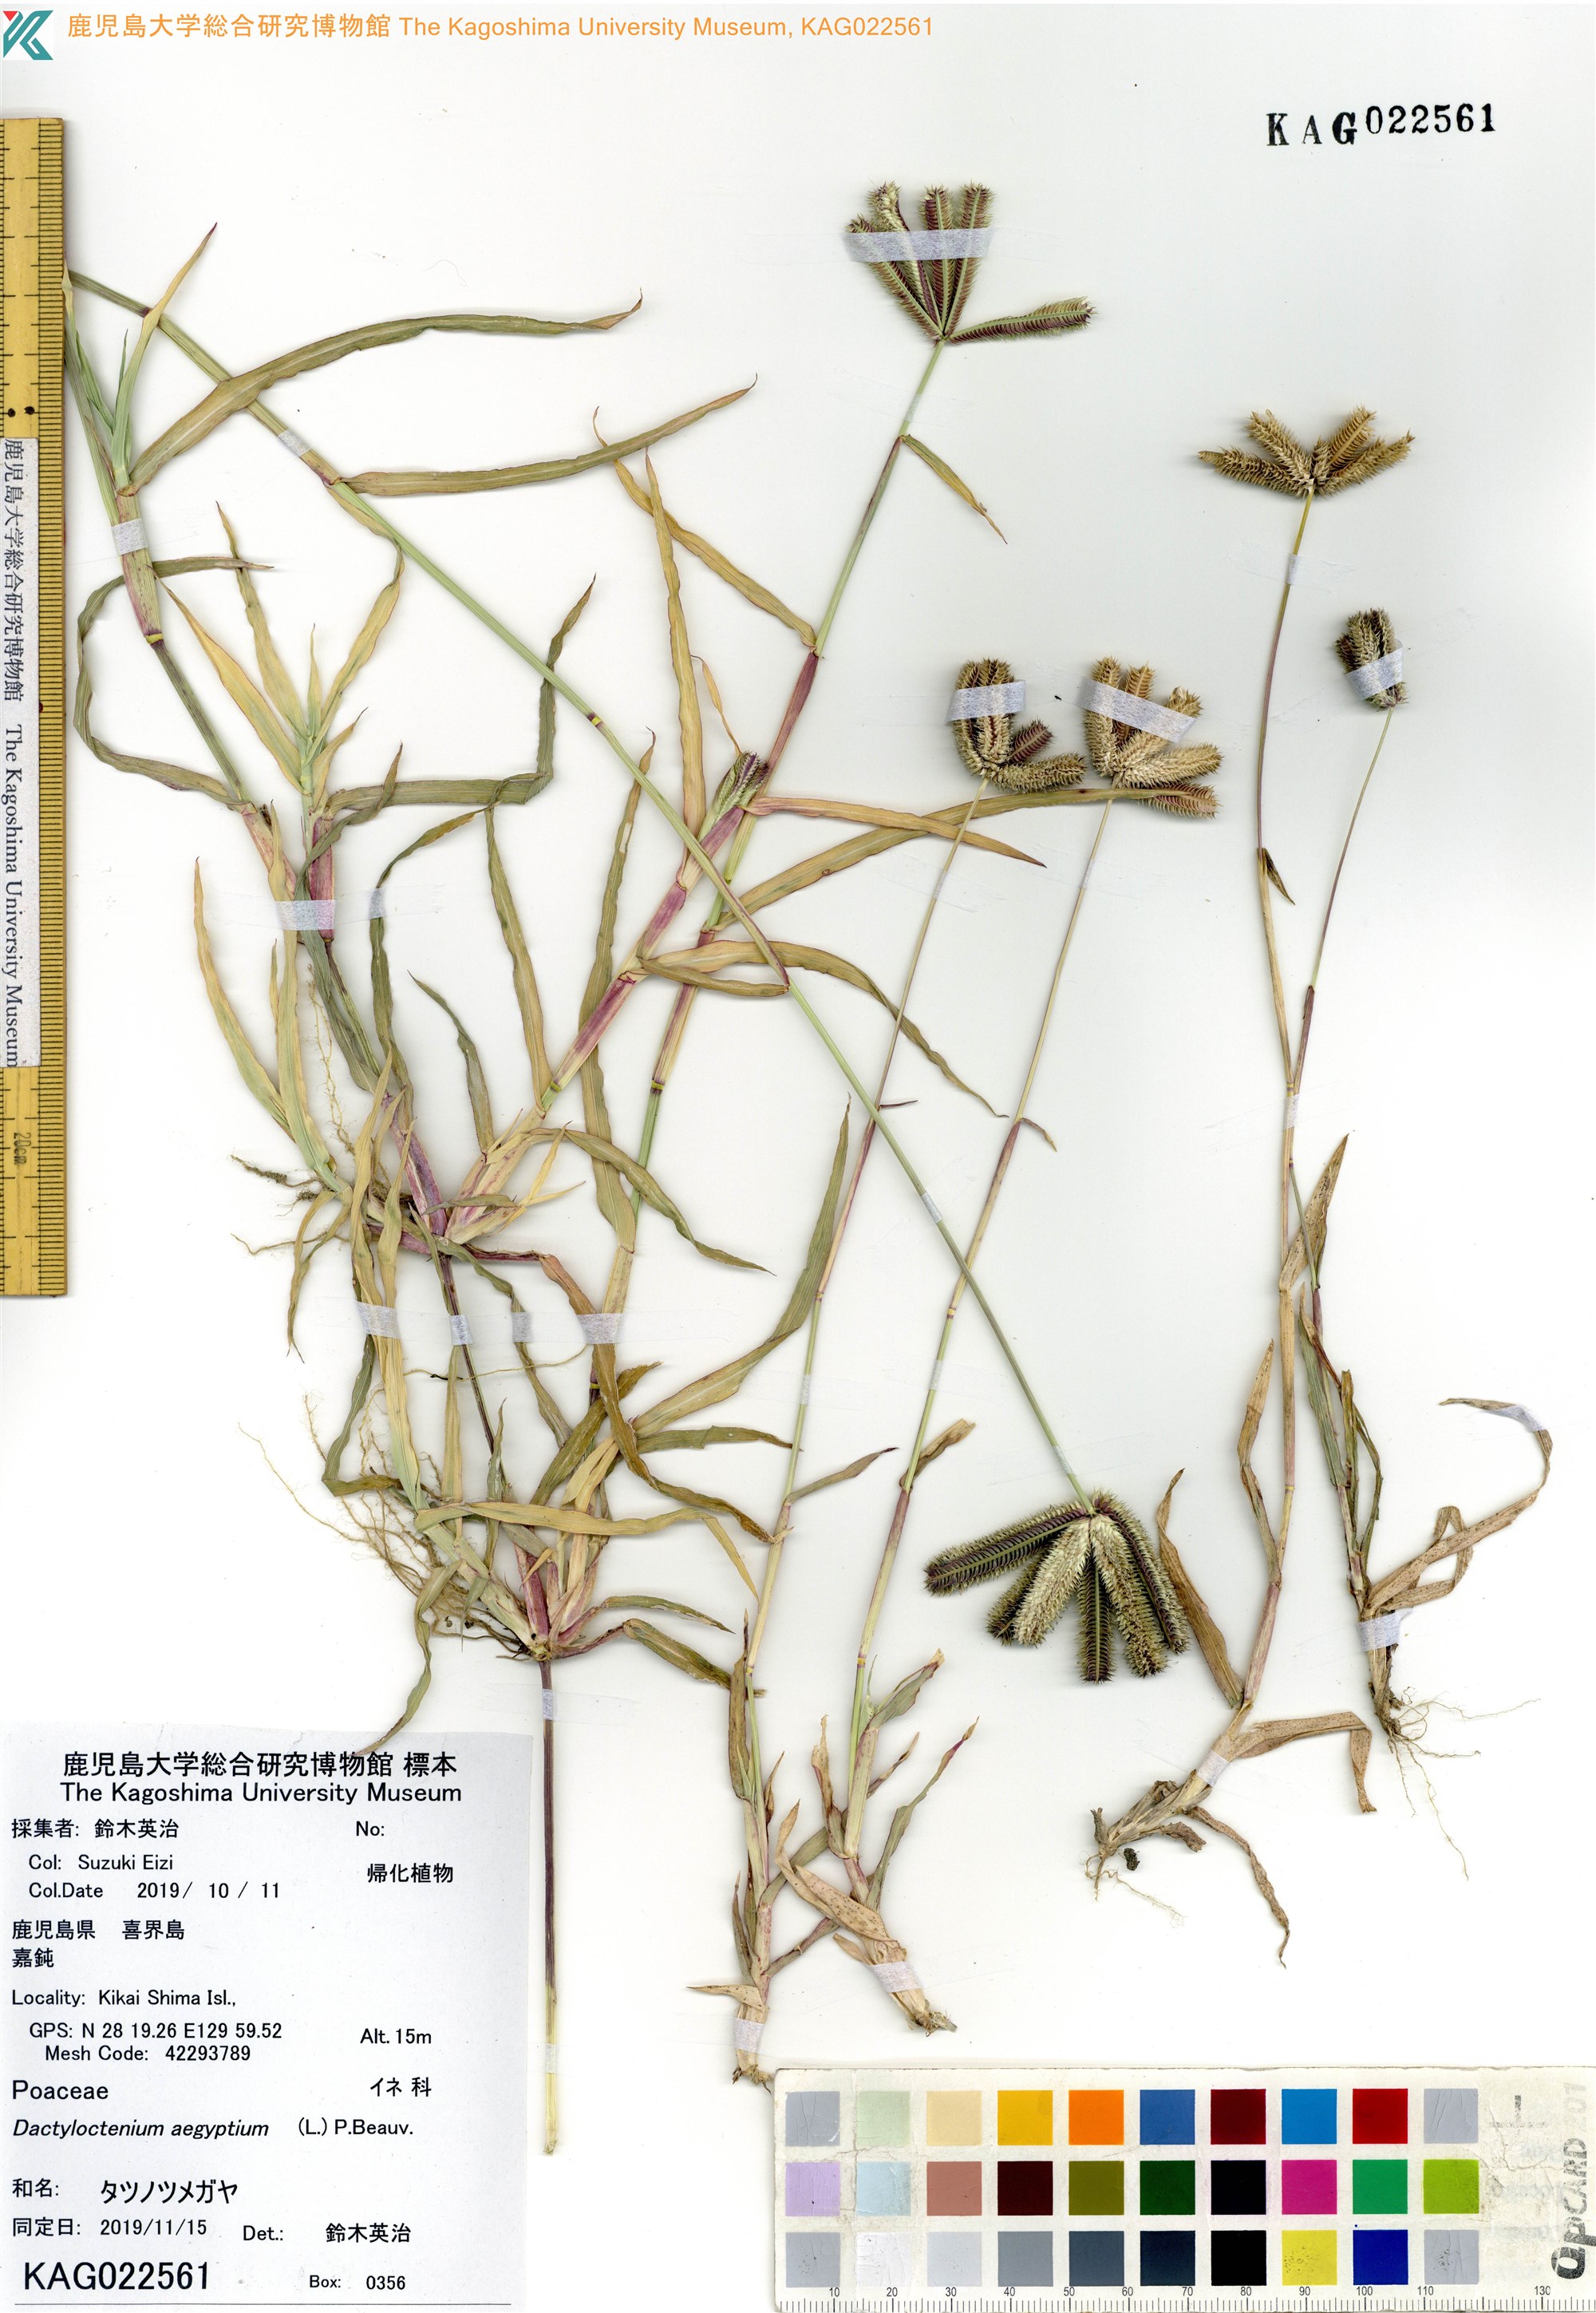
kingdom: Plantae
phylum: Tracheophyta
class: Liliopsida
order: Poales
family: Poaceae
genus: Dactyloctenium
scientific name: Dactyloctenium aegyptium
